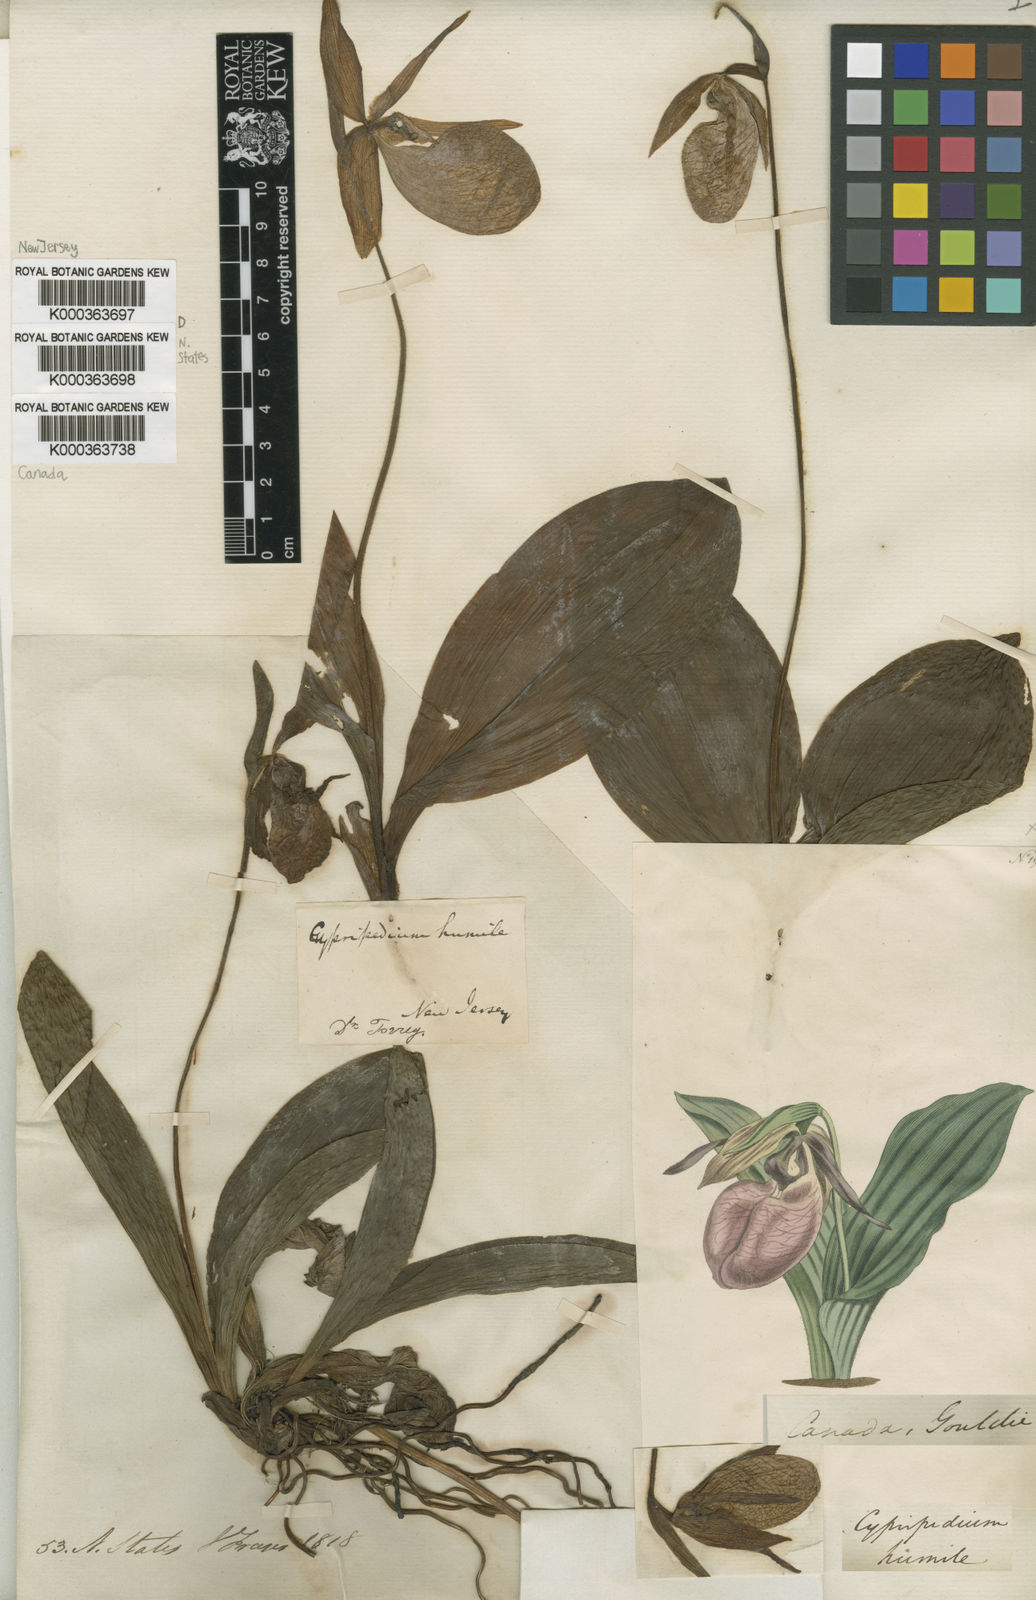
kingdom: Plantae
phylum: Tracheophyta
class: Liliopsida
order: Asparagales
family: Orchidaceae
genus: Cypripedium
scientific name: Cypripedium acaule
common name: Pink lady's-slipper
